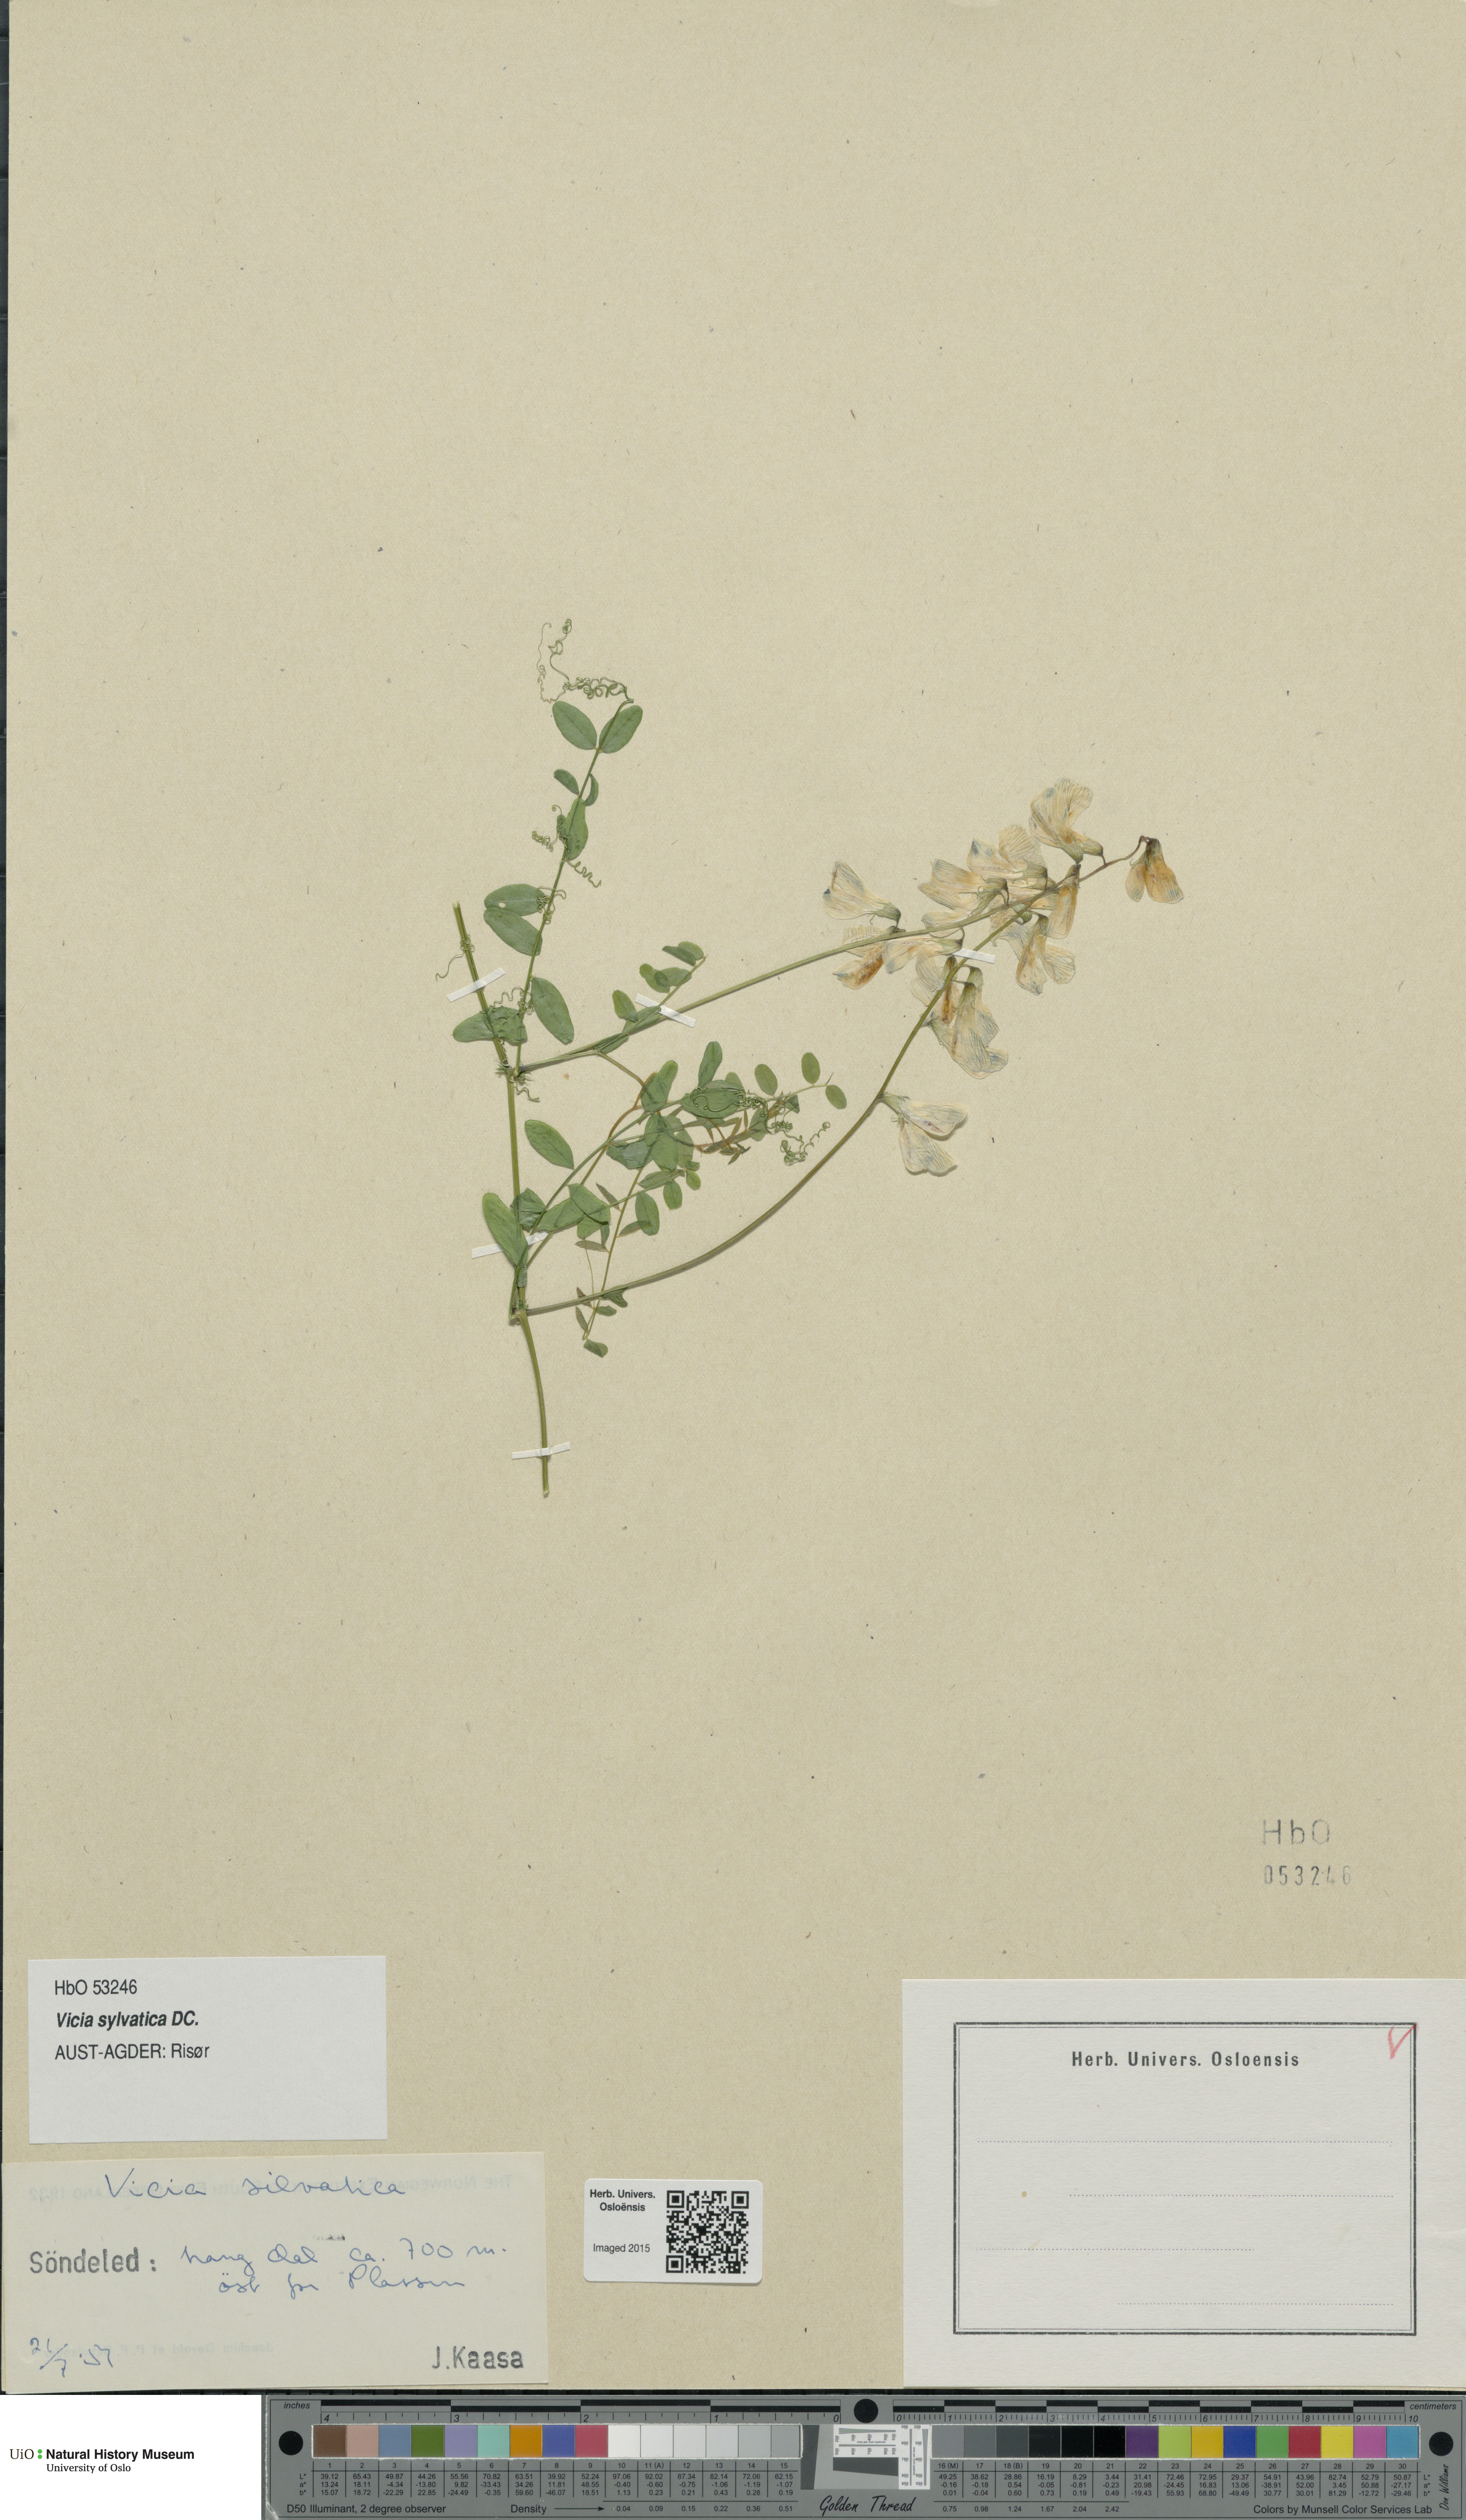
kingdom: Plantae
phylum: Tracheophyta
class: Magnoliopsida
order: Fabales
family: Fabaceae
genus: Vicia
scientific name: Vicia sylvatica
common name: Wood vetch
